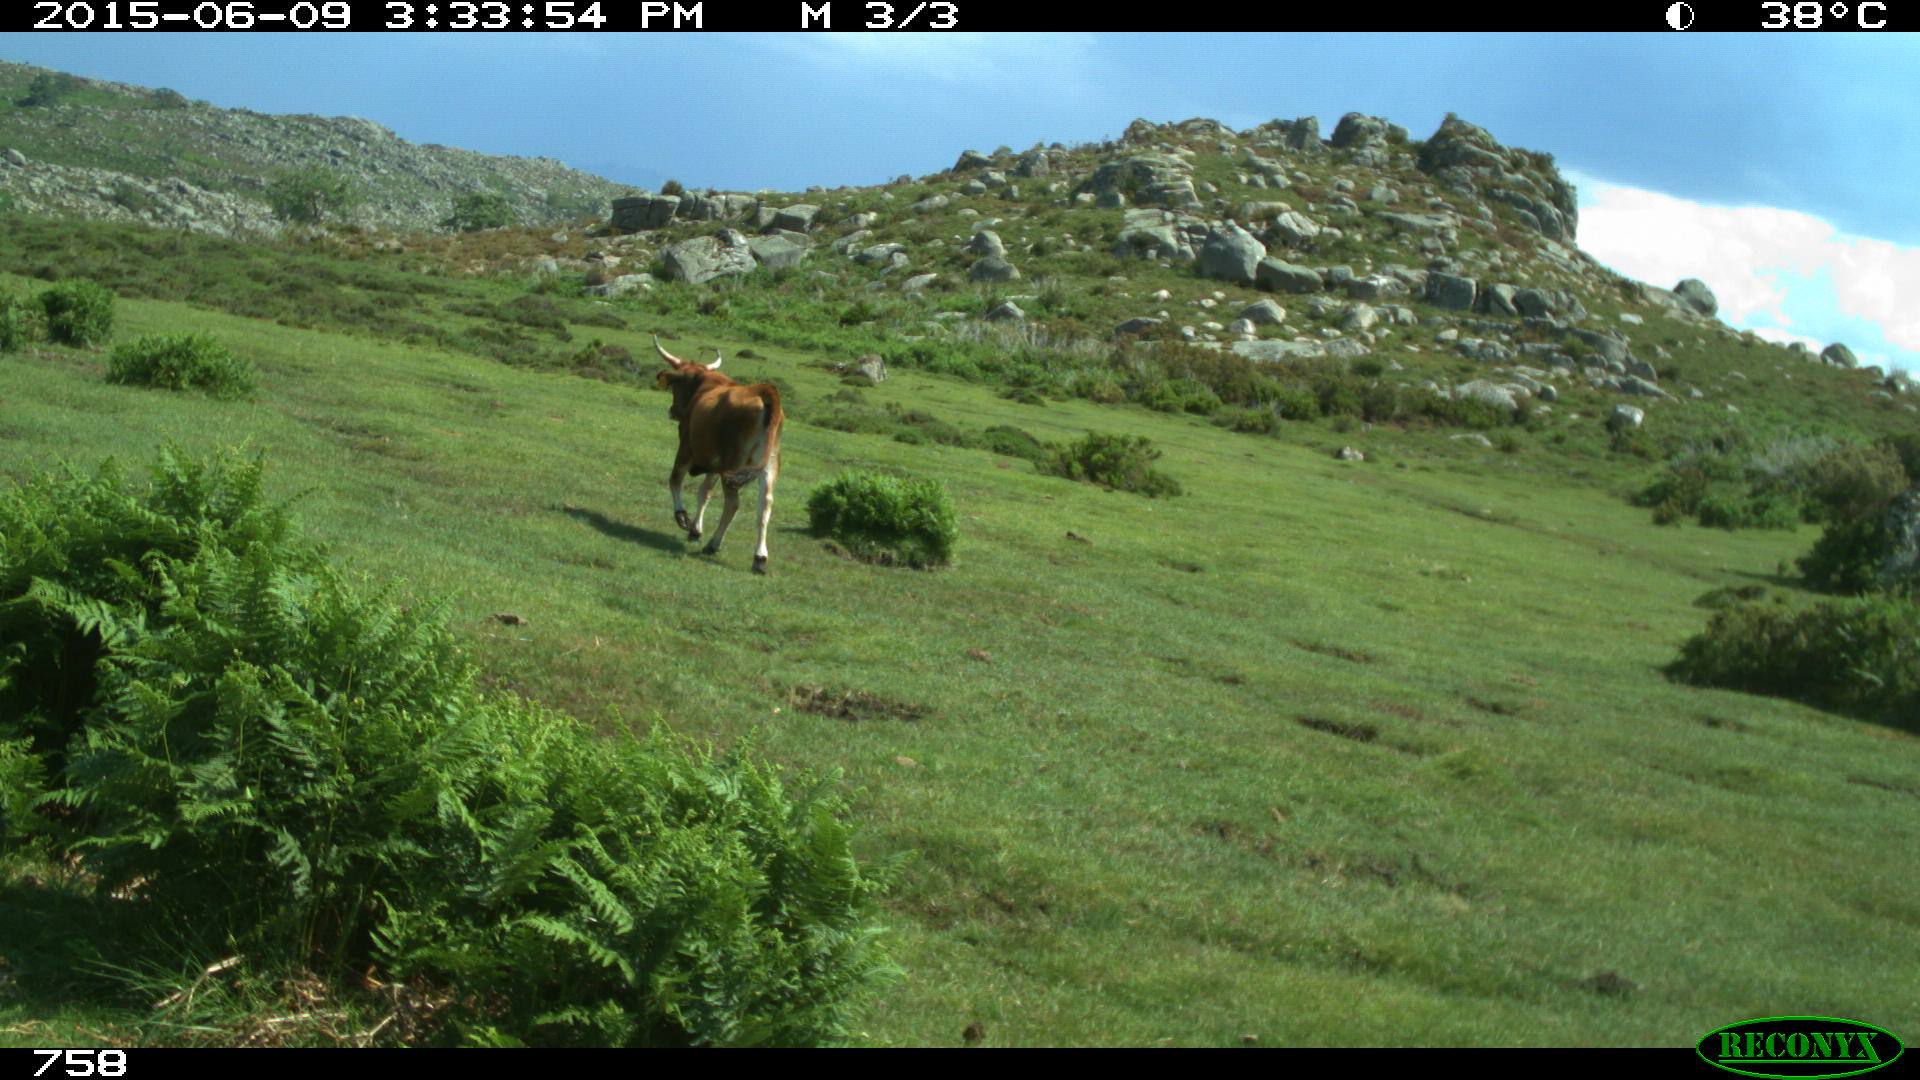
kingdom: Animalia
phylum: Chordata
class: Mammalia
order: Artiodactyla
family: Bovidae
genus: Bos
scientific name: Bos taurus
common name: Domesticated cattle
